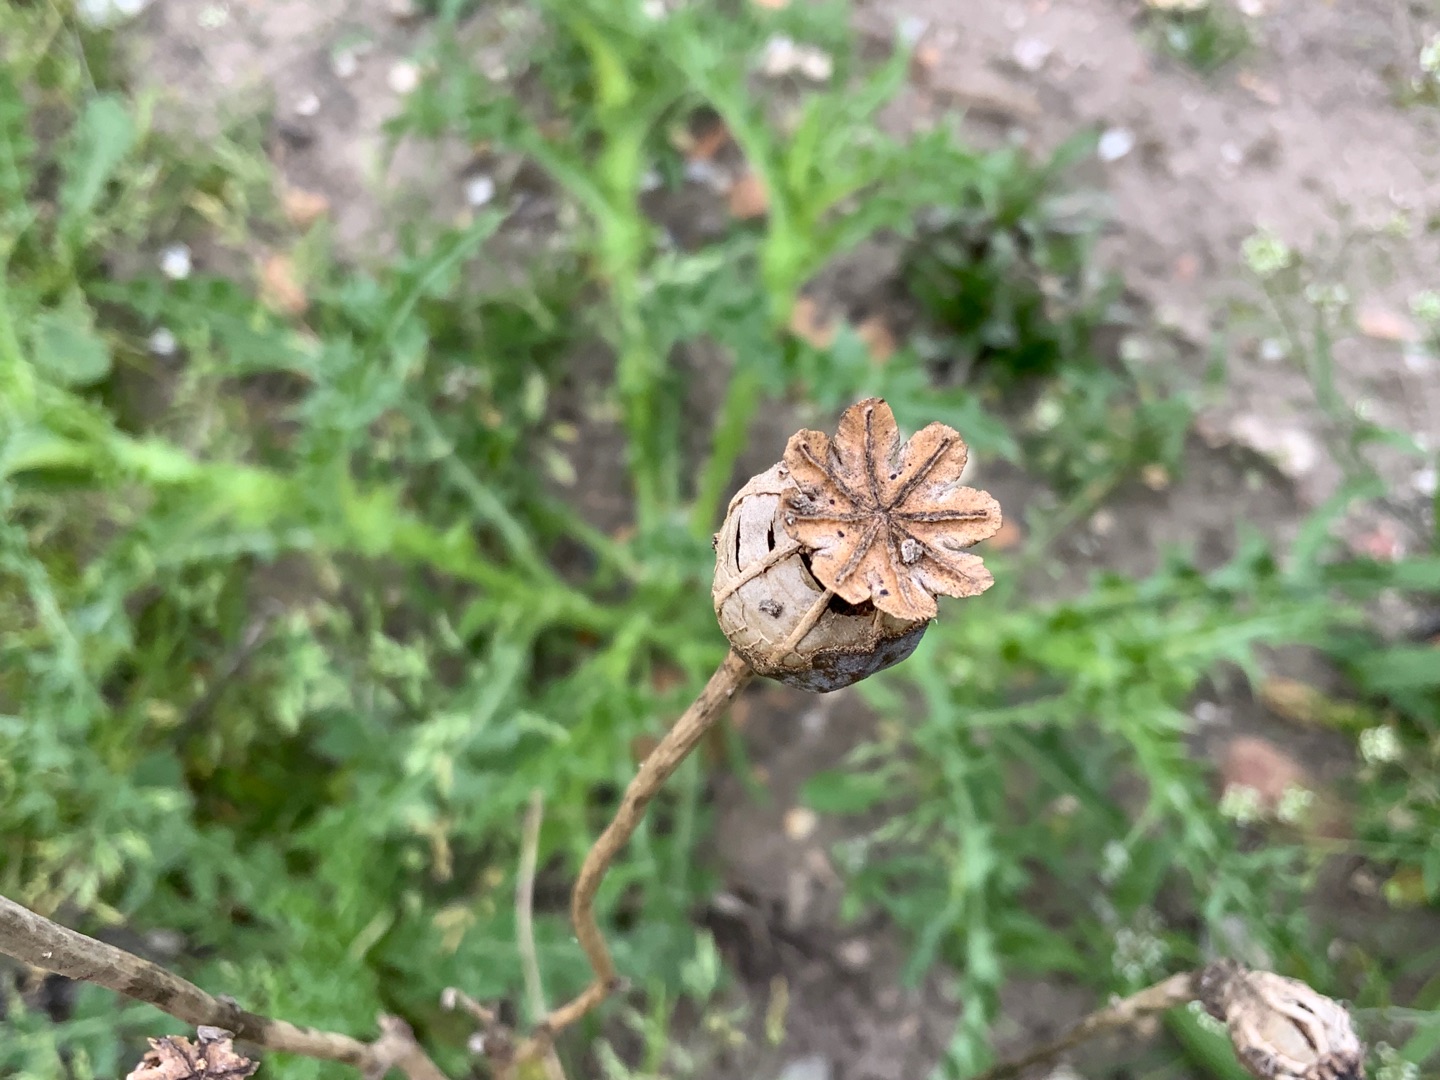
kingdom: Plantae
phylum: Tracheophyta
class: Magnoliopsida
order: Ranunculales
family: Papaveraceae
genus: Papaver
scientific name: Papaver somniferum
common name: Opium-valmue
